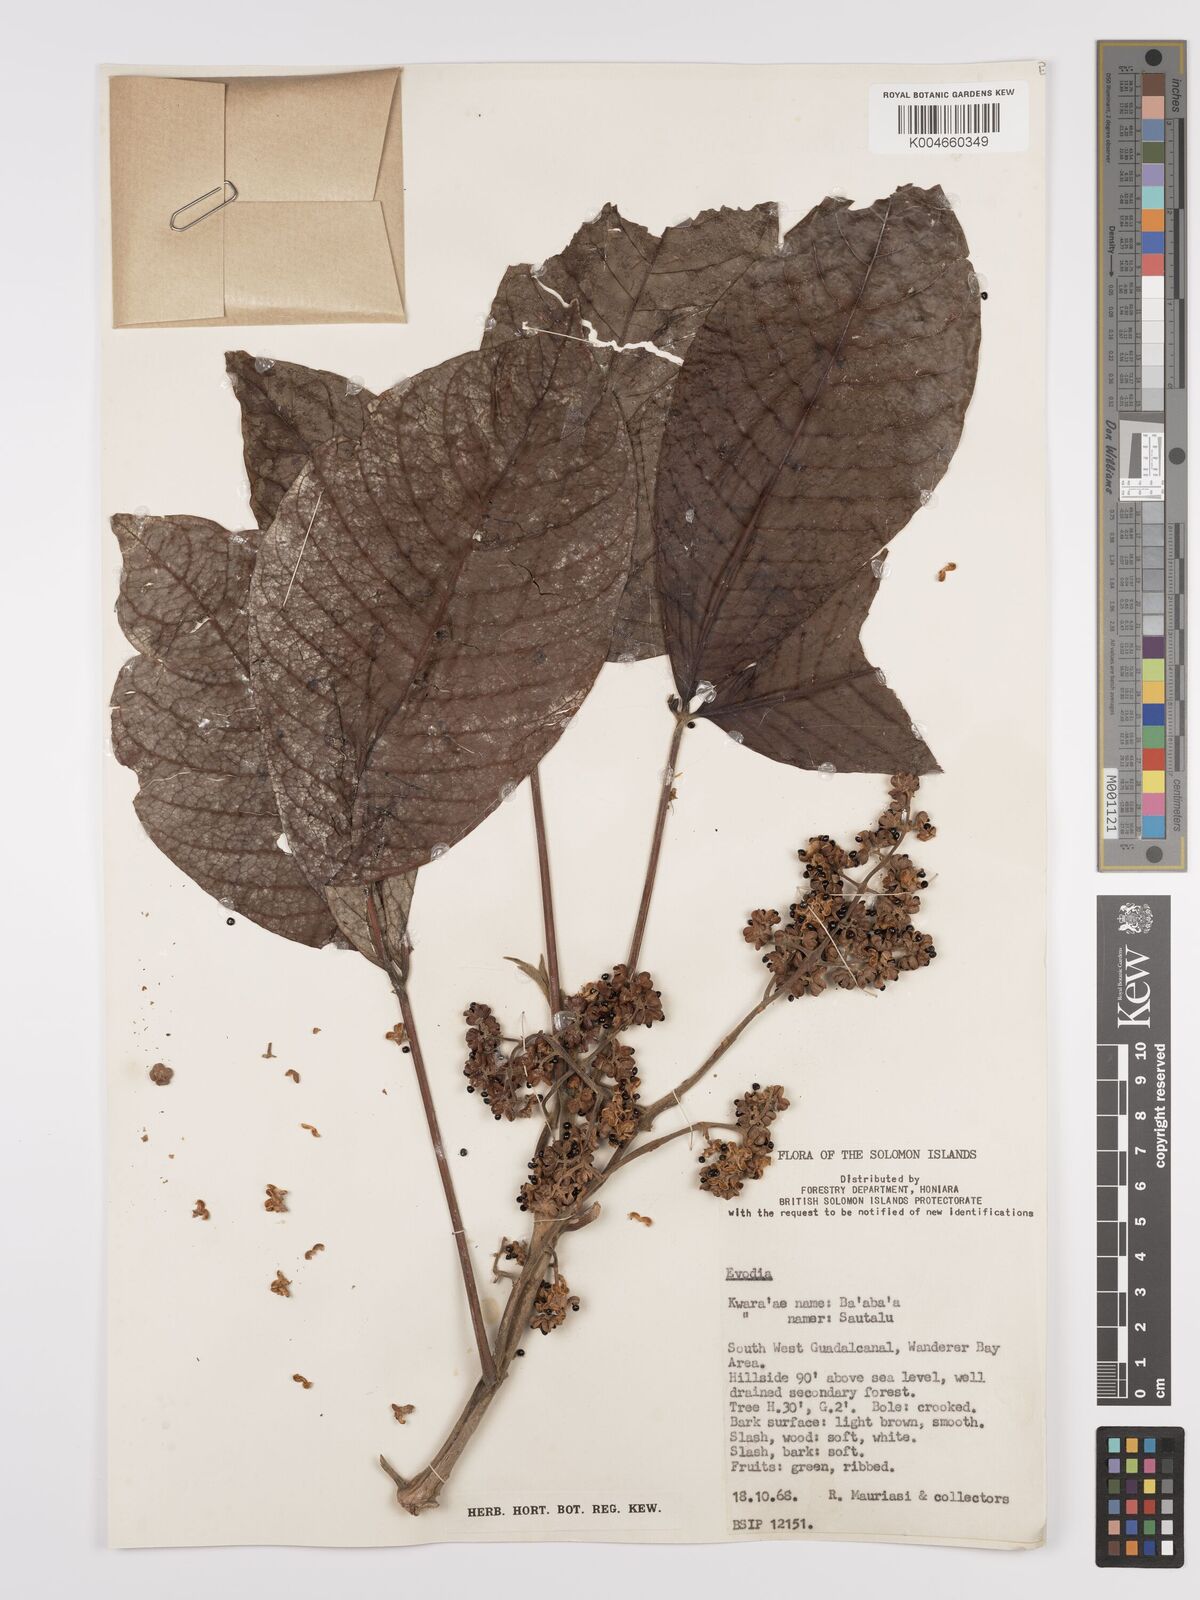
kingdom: Plantae
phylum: Tracheophyta
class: Magnoliopsida
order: Sapindales
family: Rutaceae
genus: Euodia
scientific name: Euodia
